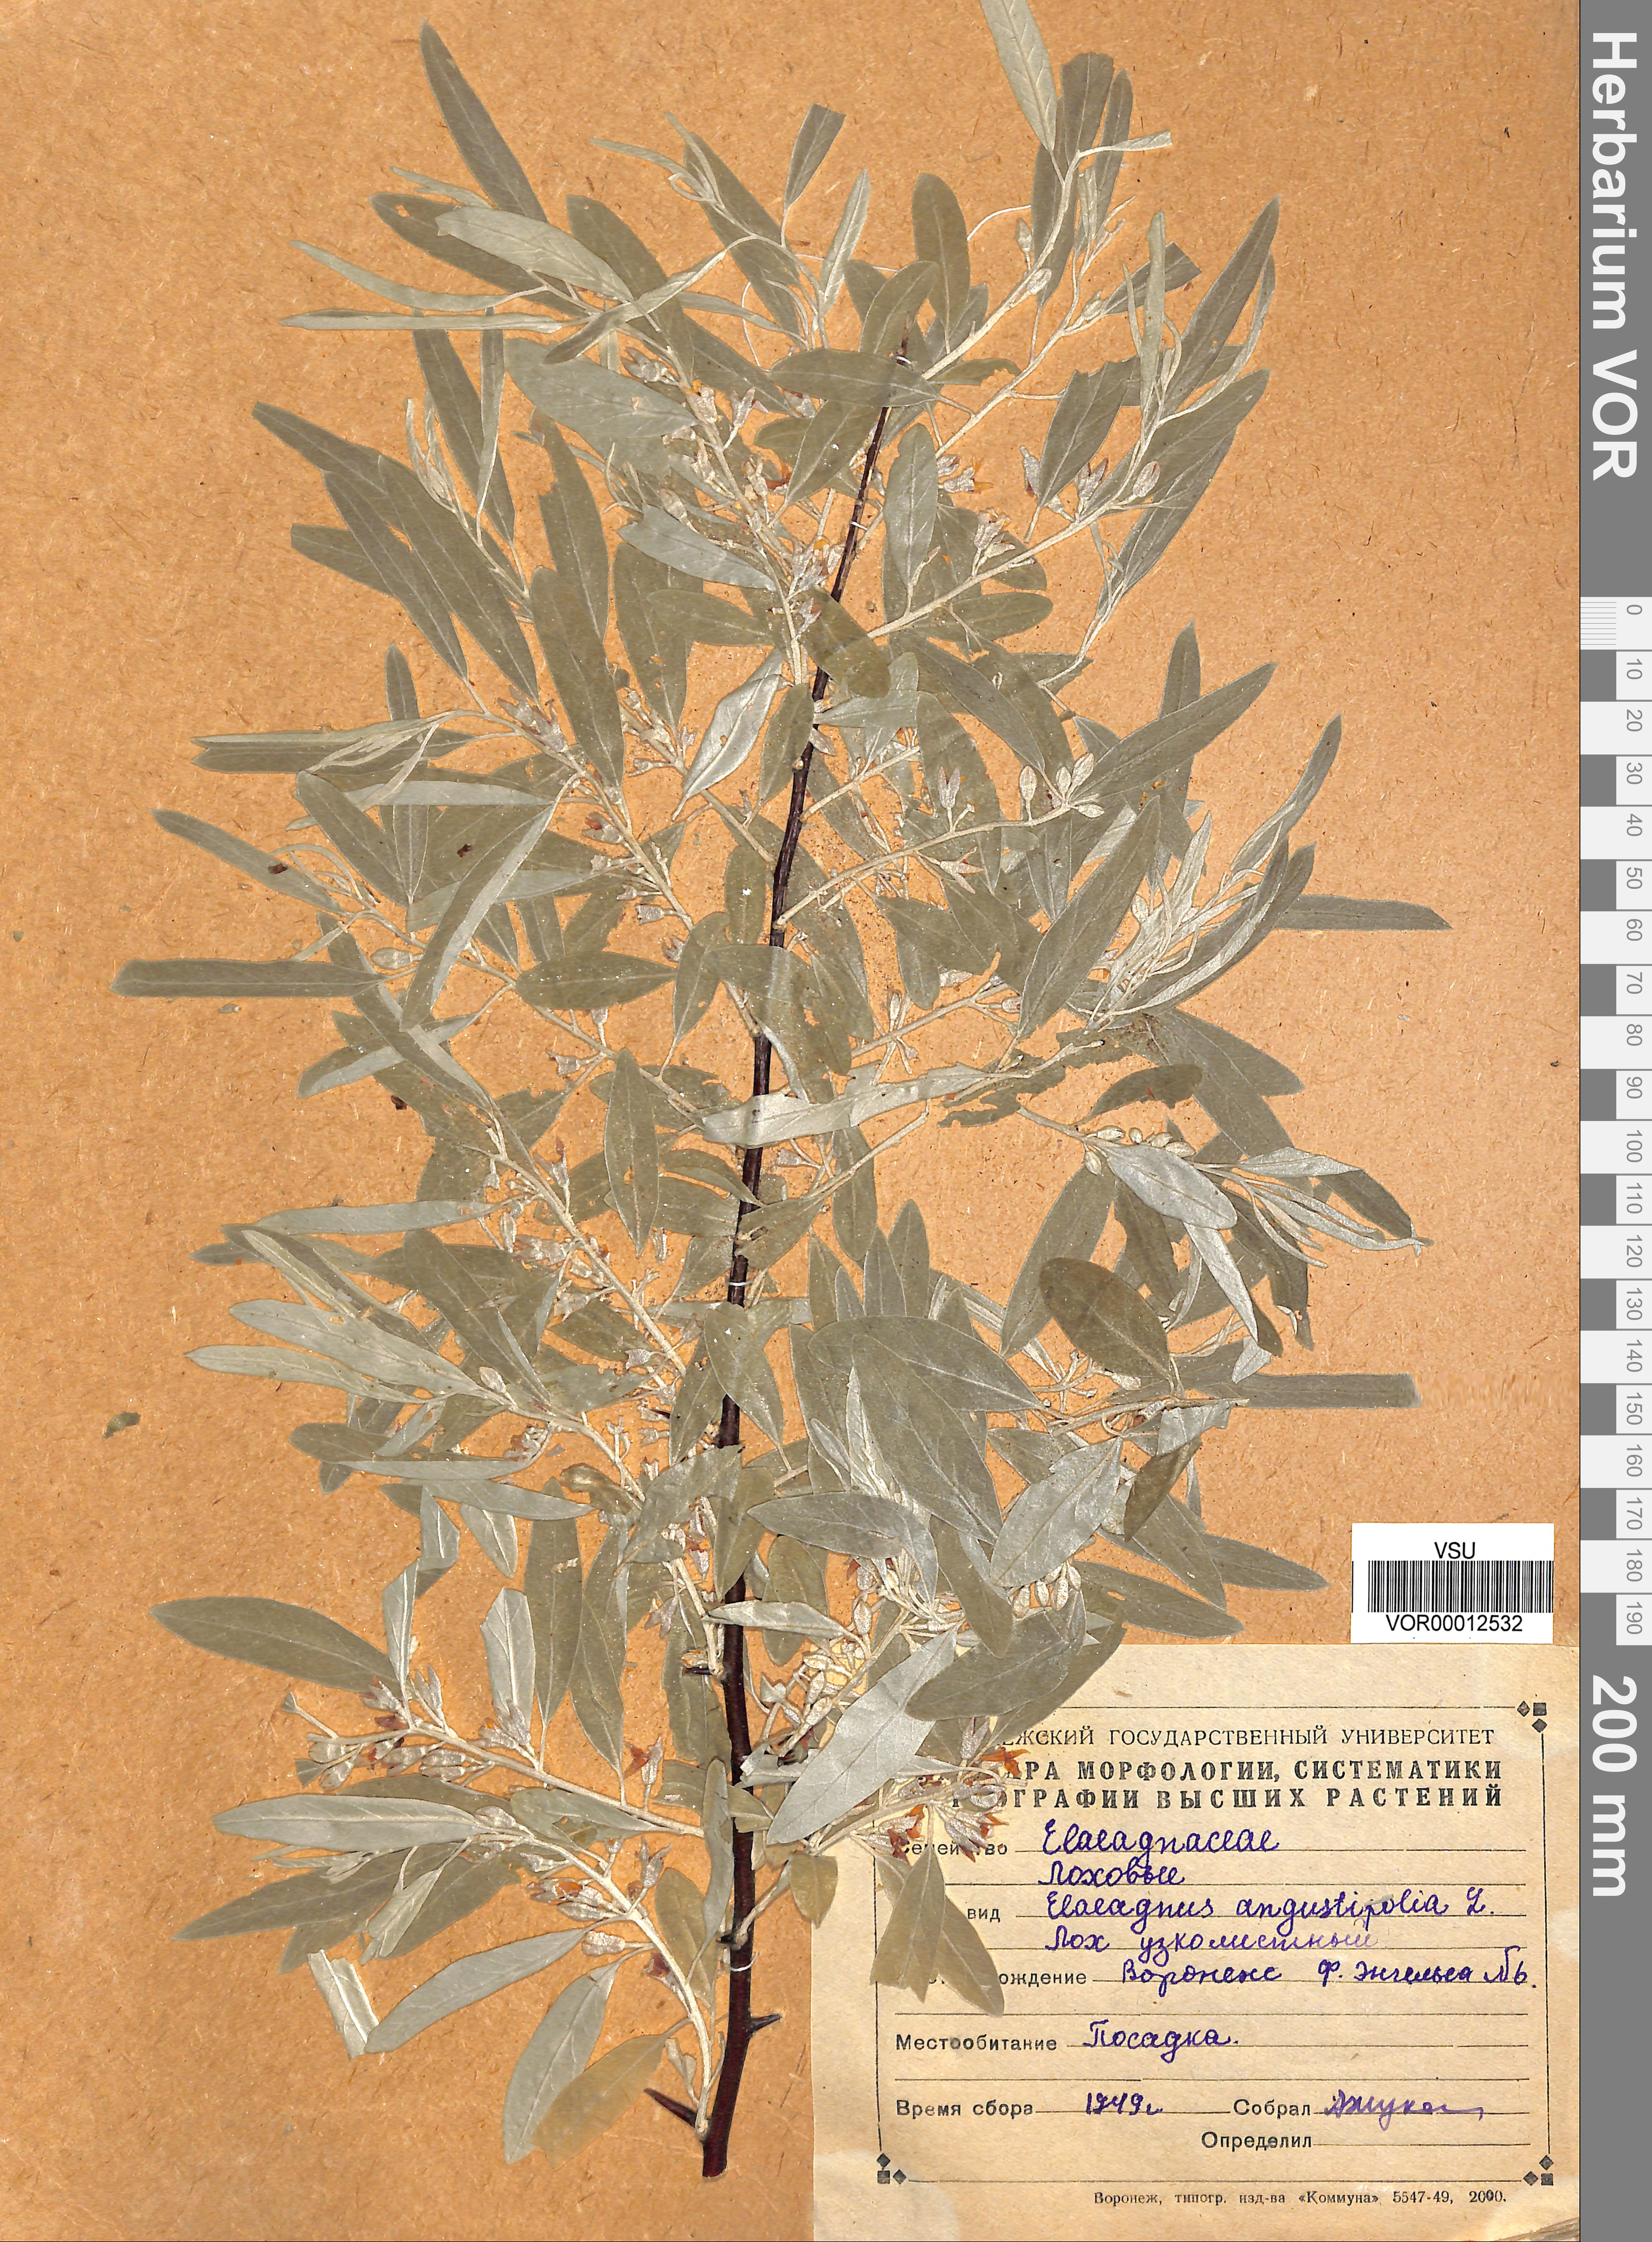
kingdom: Plantae
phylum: Tracheophyta
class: Magnoliopsida
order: Rosales
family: Elaeagnaceae
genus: Elaeagnus
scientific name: Elaeagnus angustifolia
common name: Russian olive
